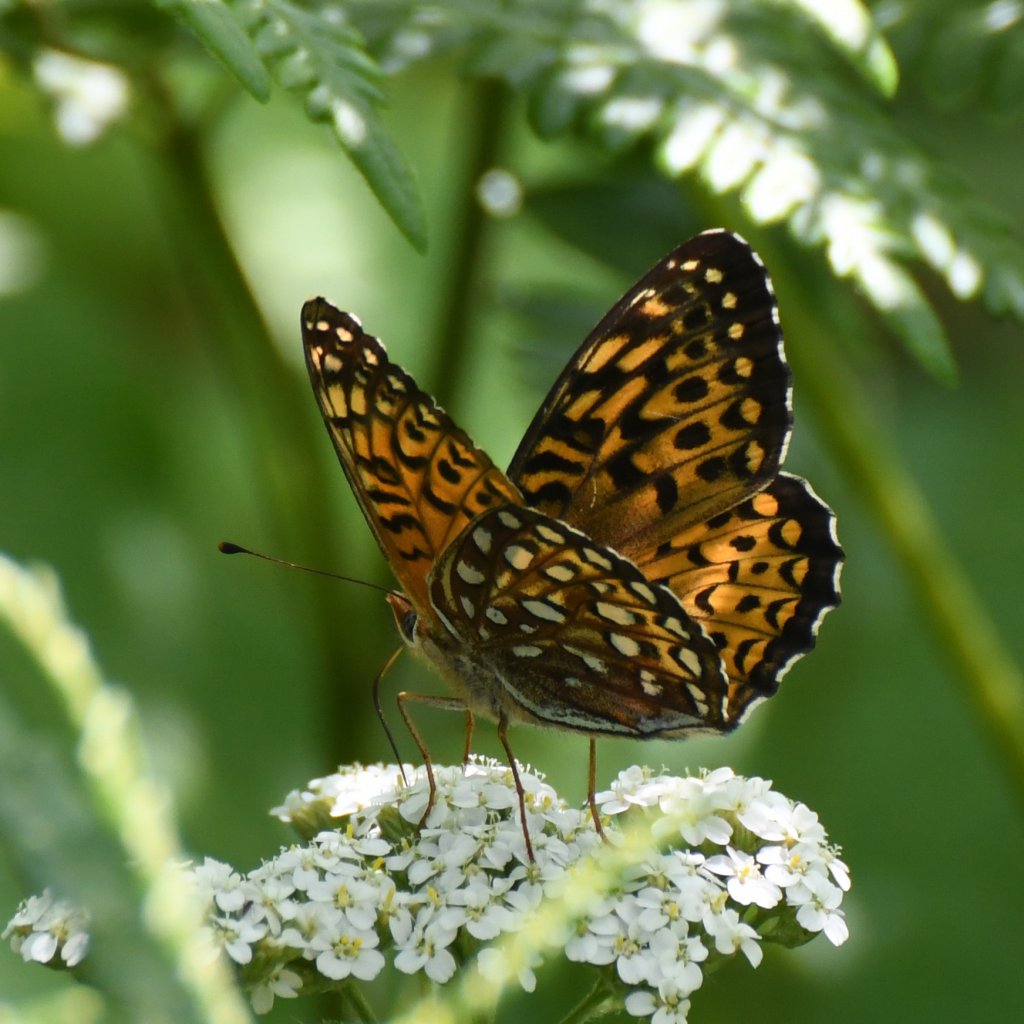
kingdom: Animalia
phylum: Arthropoda
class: Insecta
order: Lepidoptera
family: Nymphalidae
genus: Speyeria
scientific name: Speyeria atlantis
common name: Atlantis Fritillary
